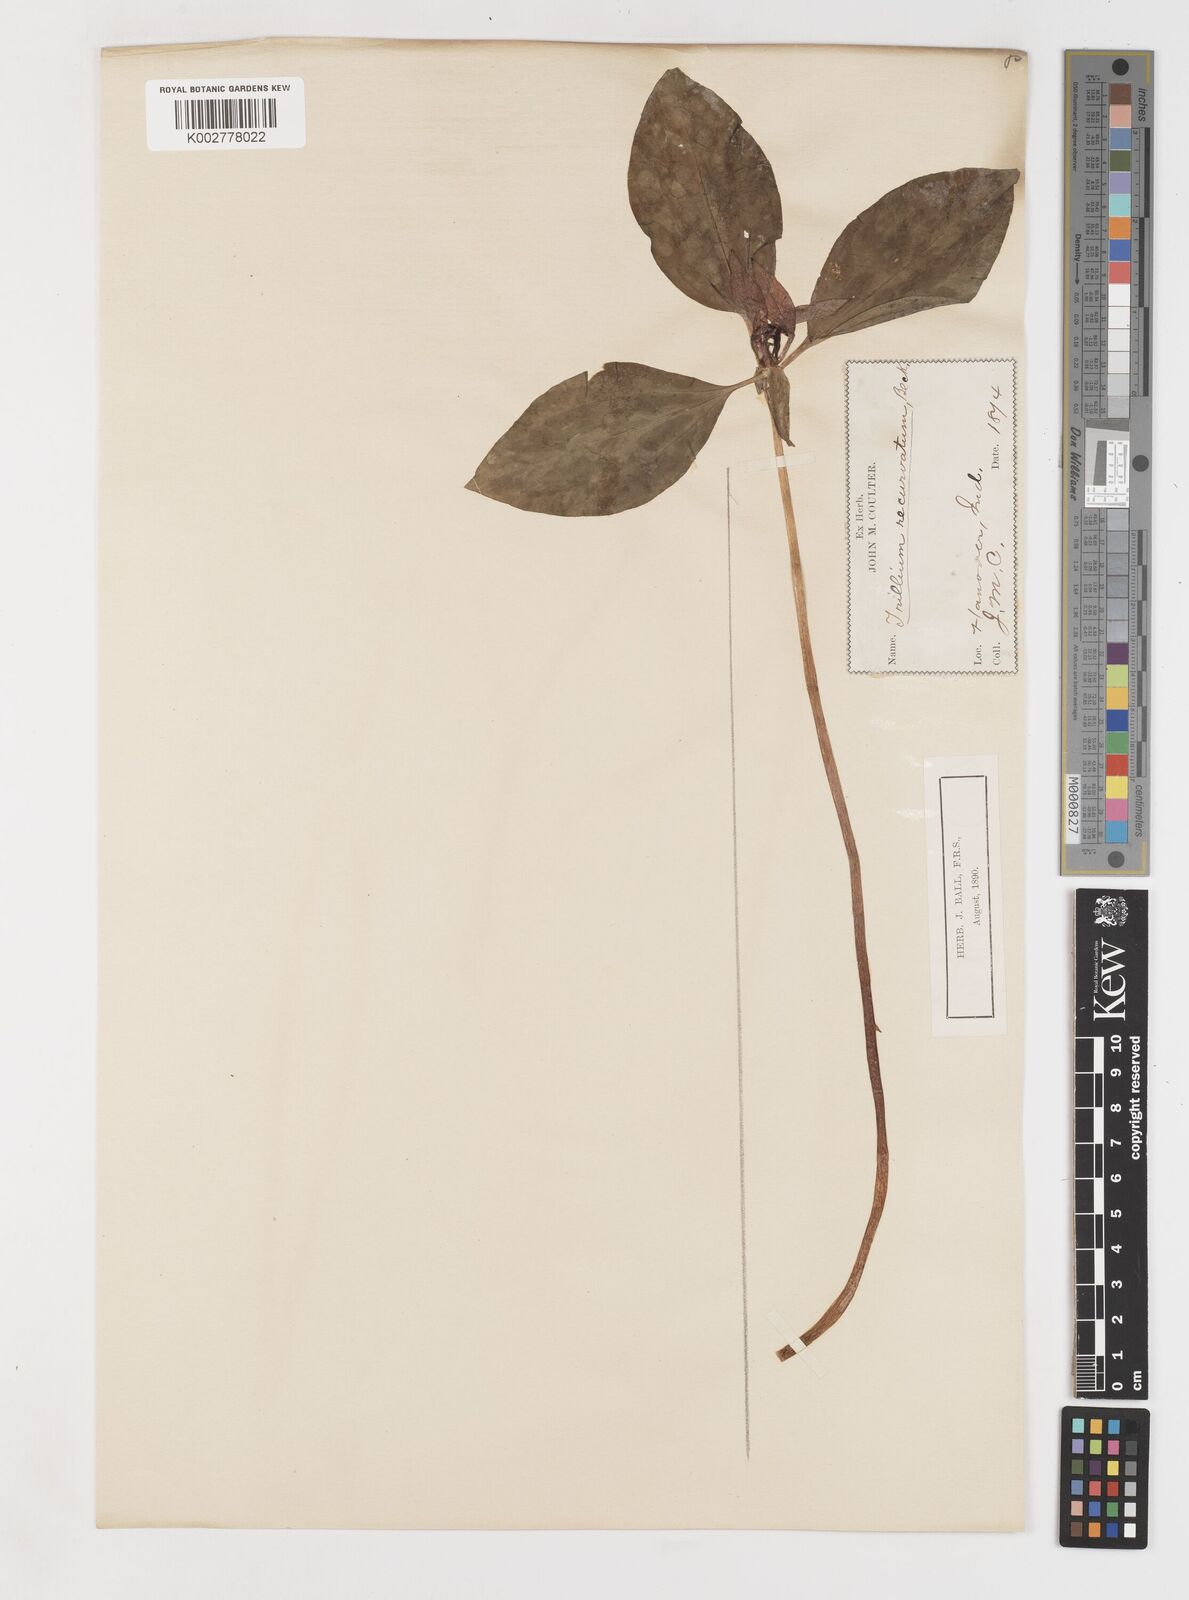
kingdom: Plantae
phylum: Tracheophyta
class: Liliopsida
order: Liliales
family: Melanthiaceae
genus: Trillium
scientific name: Trillium recurvatum
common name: Bloody butcher
